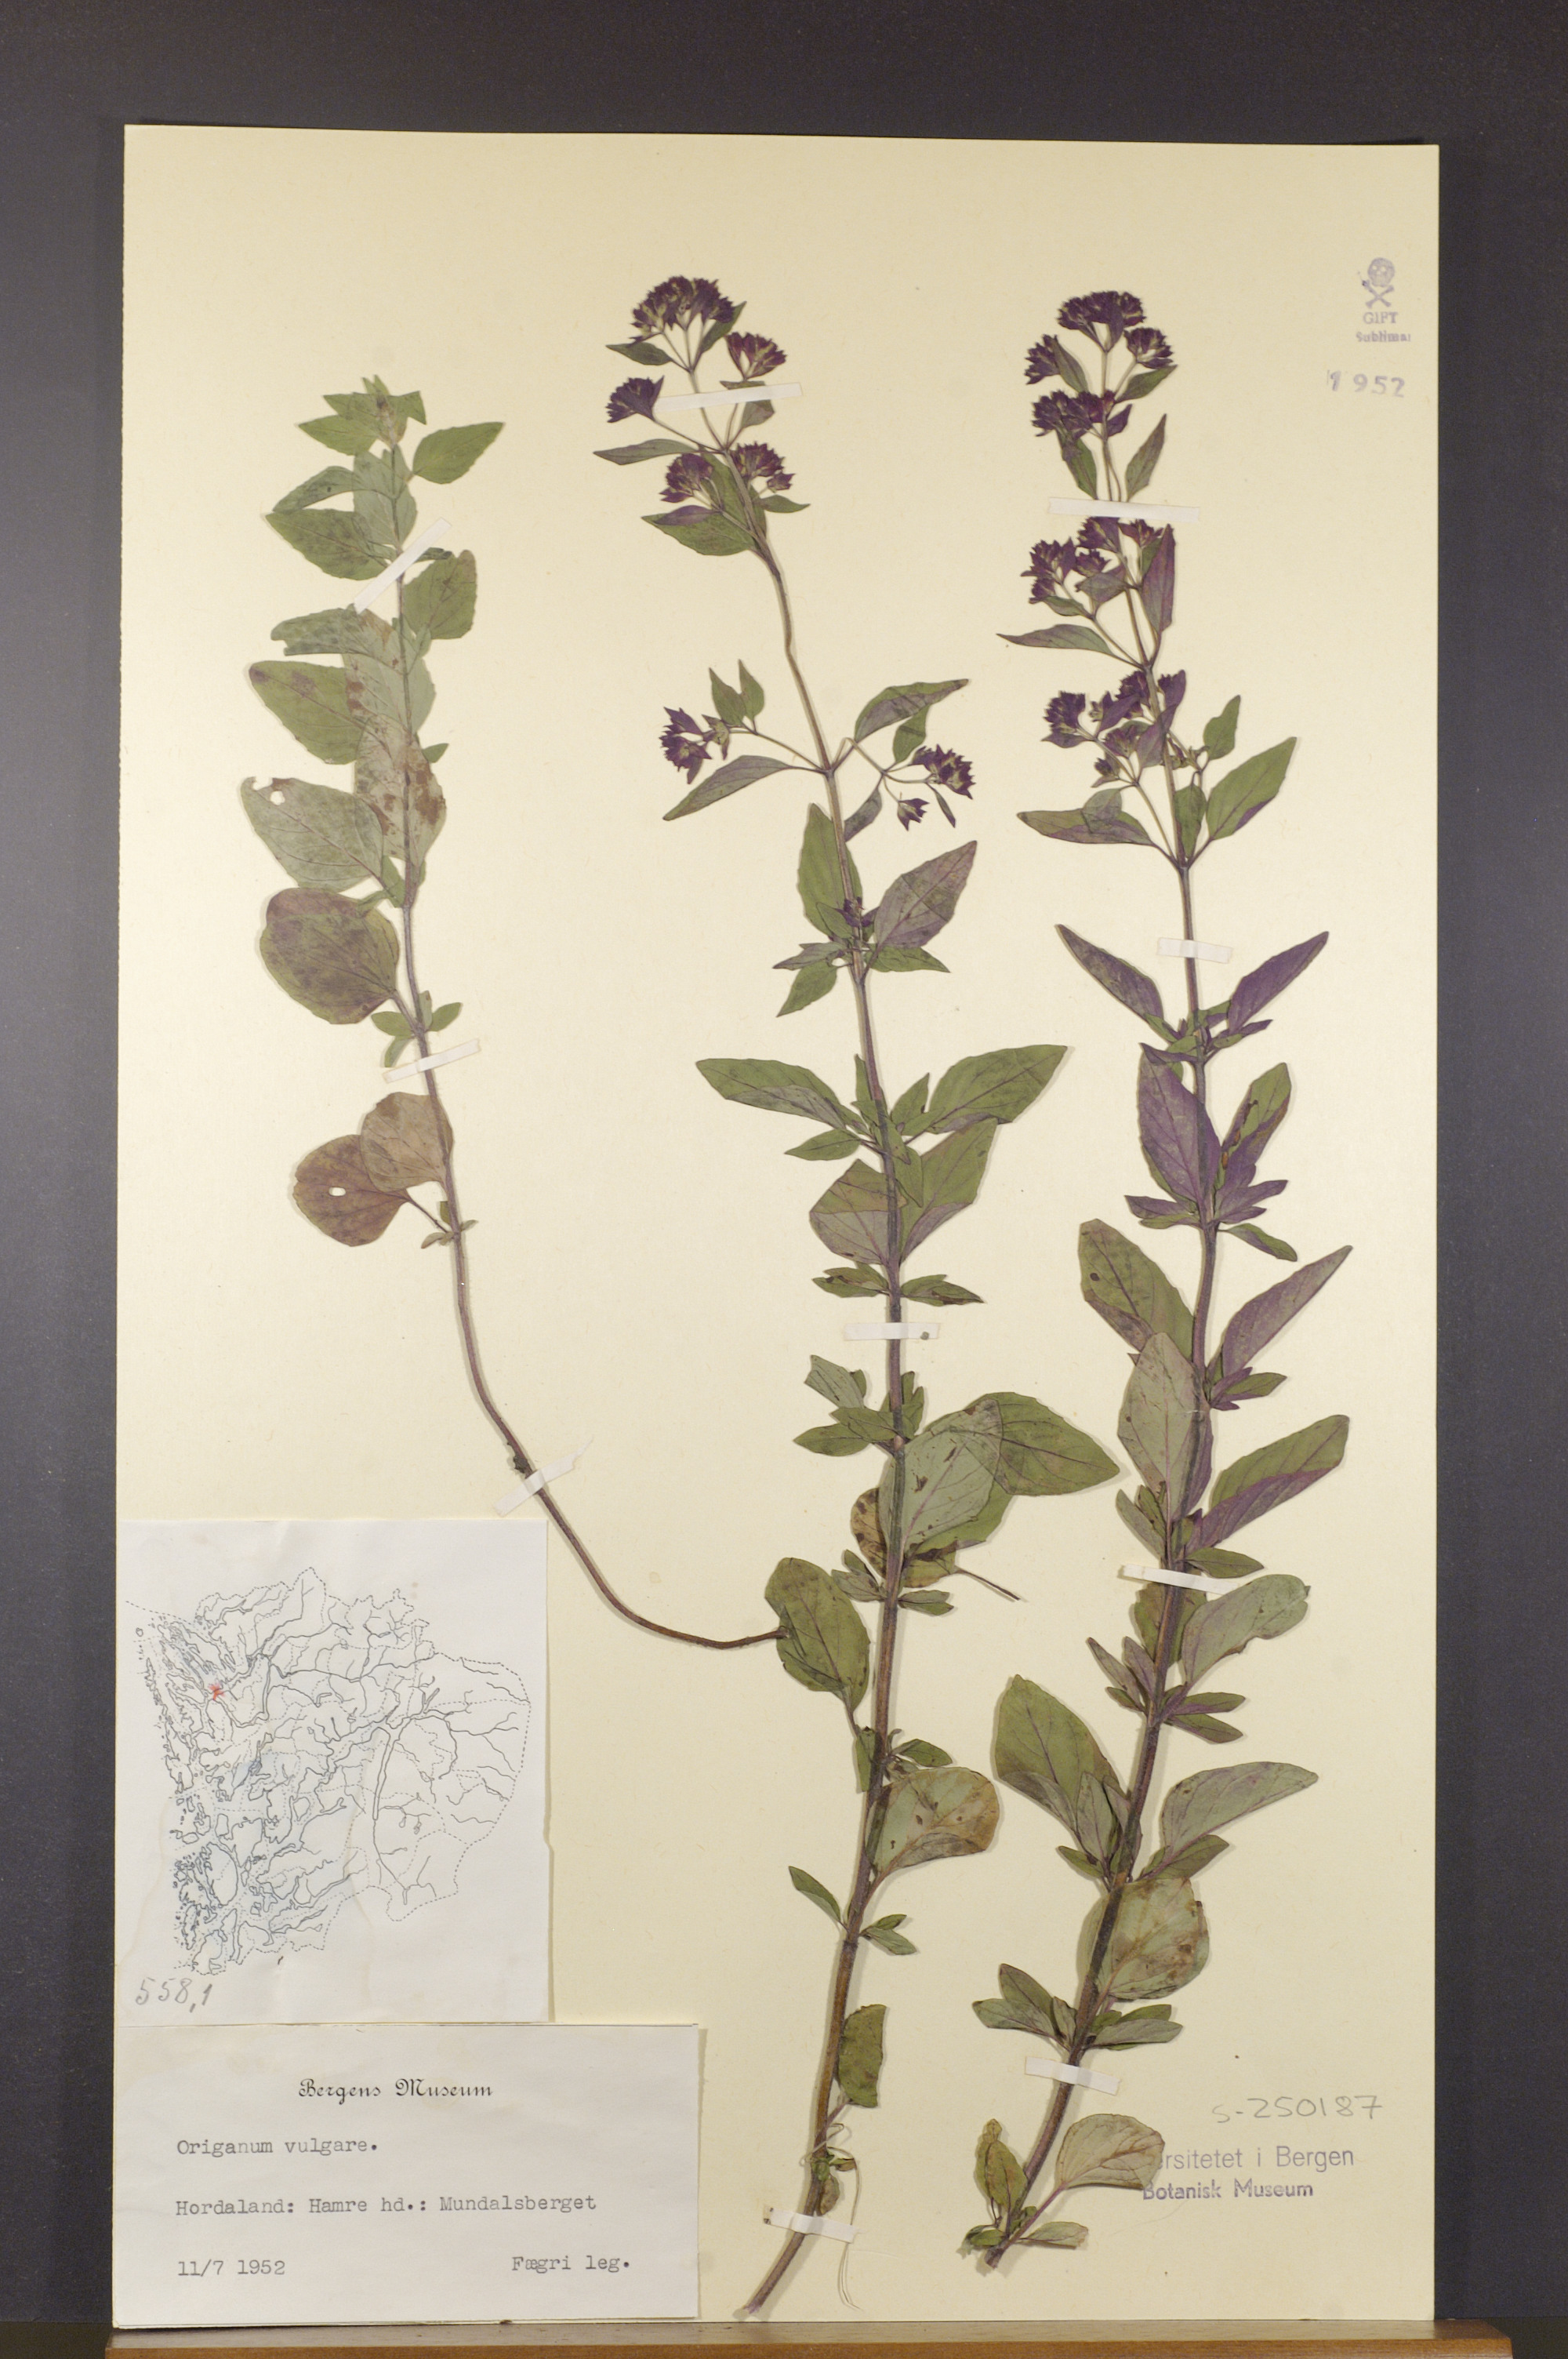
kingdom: Plantae
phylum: Tracheophyta
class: Magnoliopsida
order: Lamiales
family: Lamiaceae
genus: Origanum
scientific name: Origanum vulgare
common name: Wild marjoram
